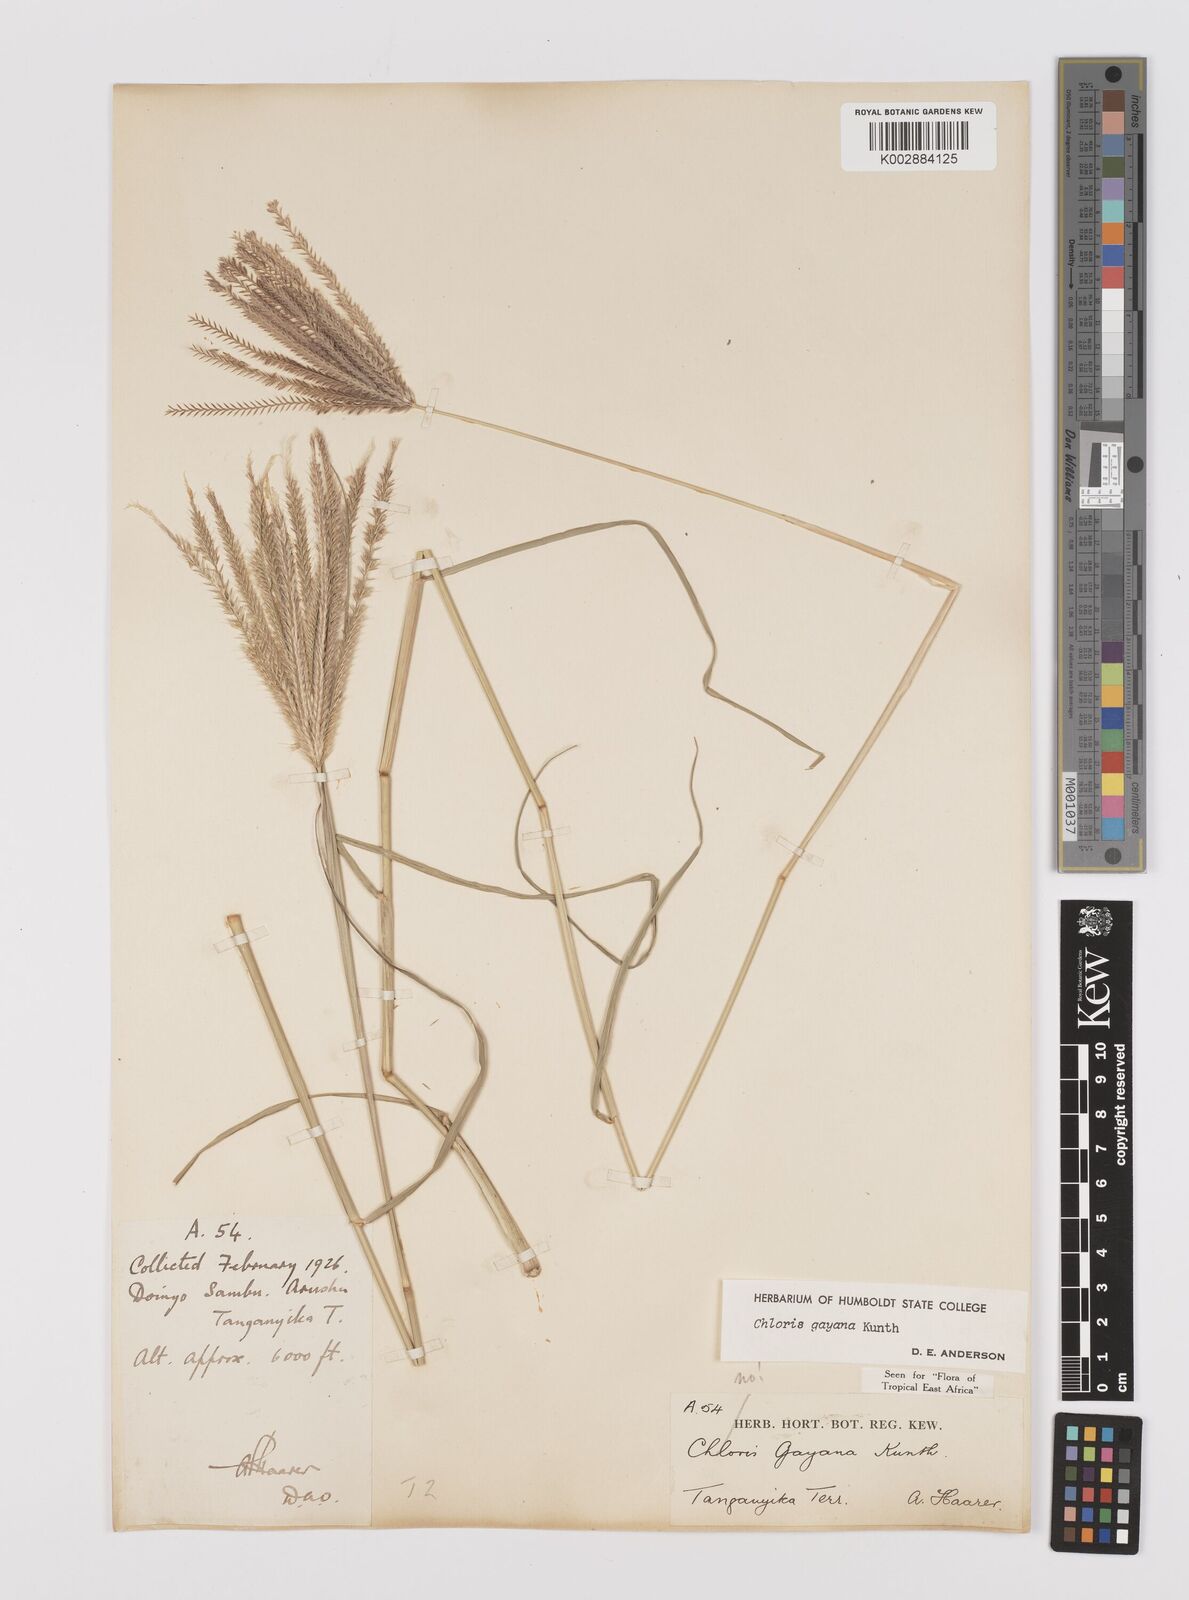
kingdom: Plantae
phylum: Tracheophyta
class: Liliopsida
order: Poales
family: Poaceae
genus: Chloris
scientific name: Chloris gayana
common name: Rhodes grass
